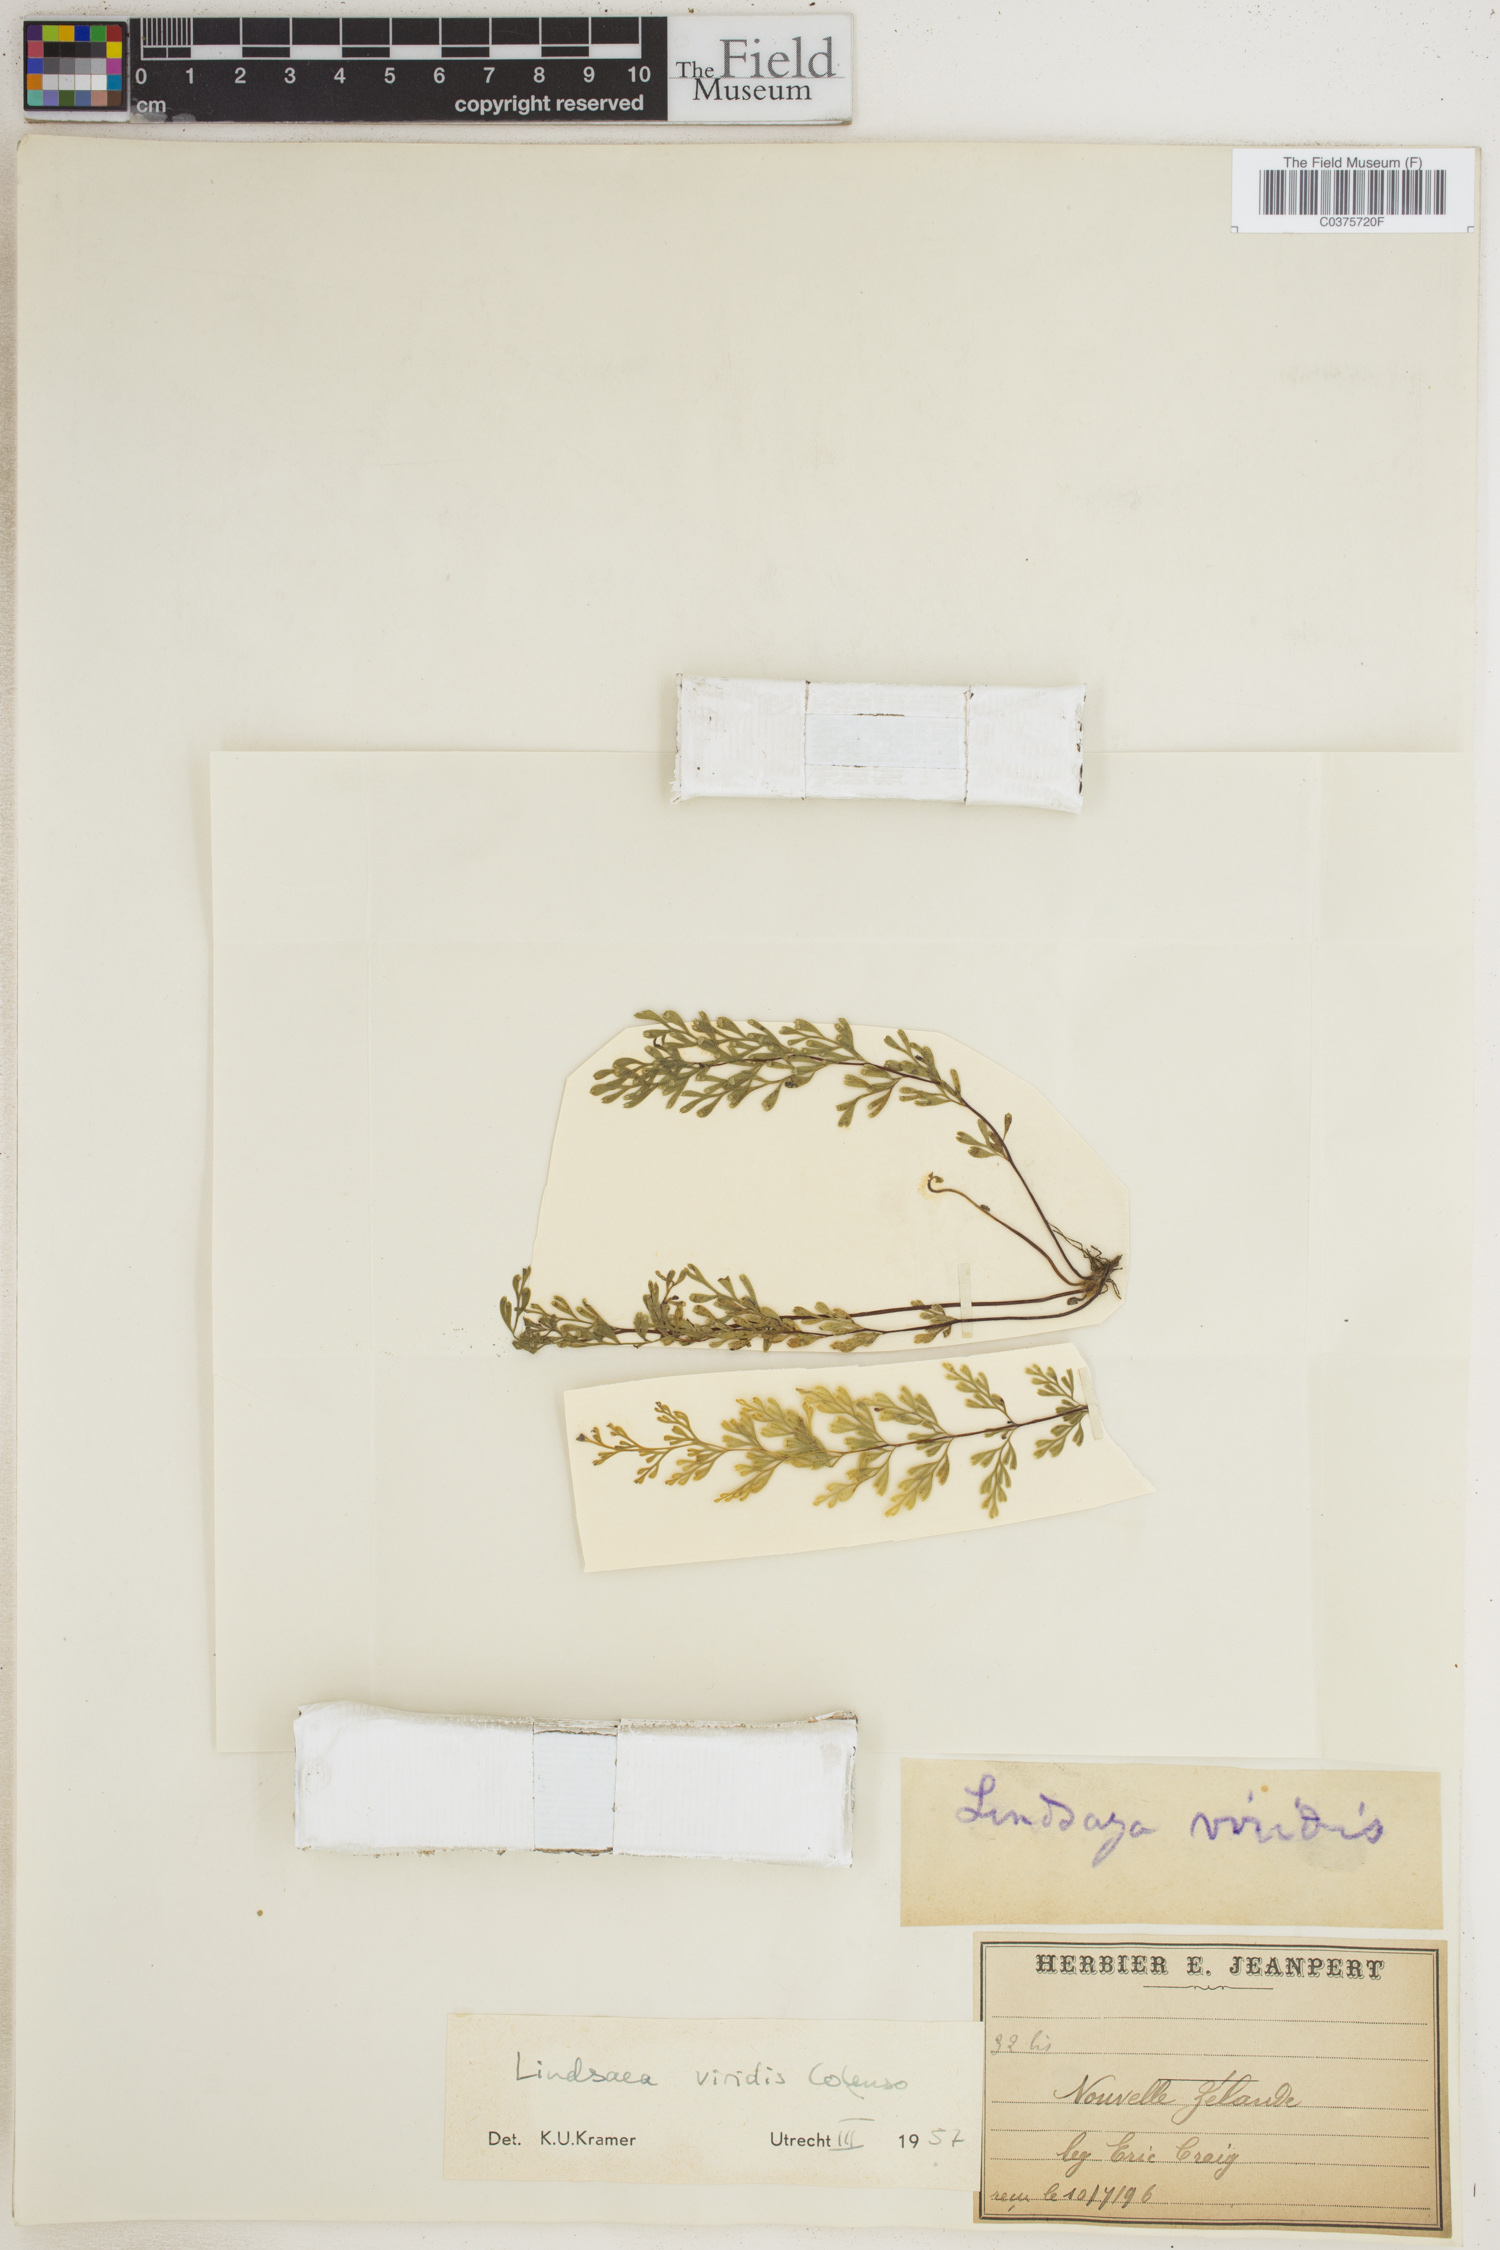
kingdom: Plantae
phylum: Tracheophyta
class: Polypodiopsida
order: Polypodiales
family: Lindsaeaceae
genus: Odontosoria
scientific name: Odontosoria viridis
